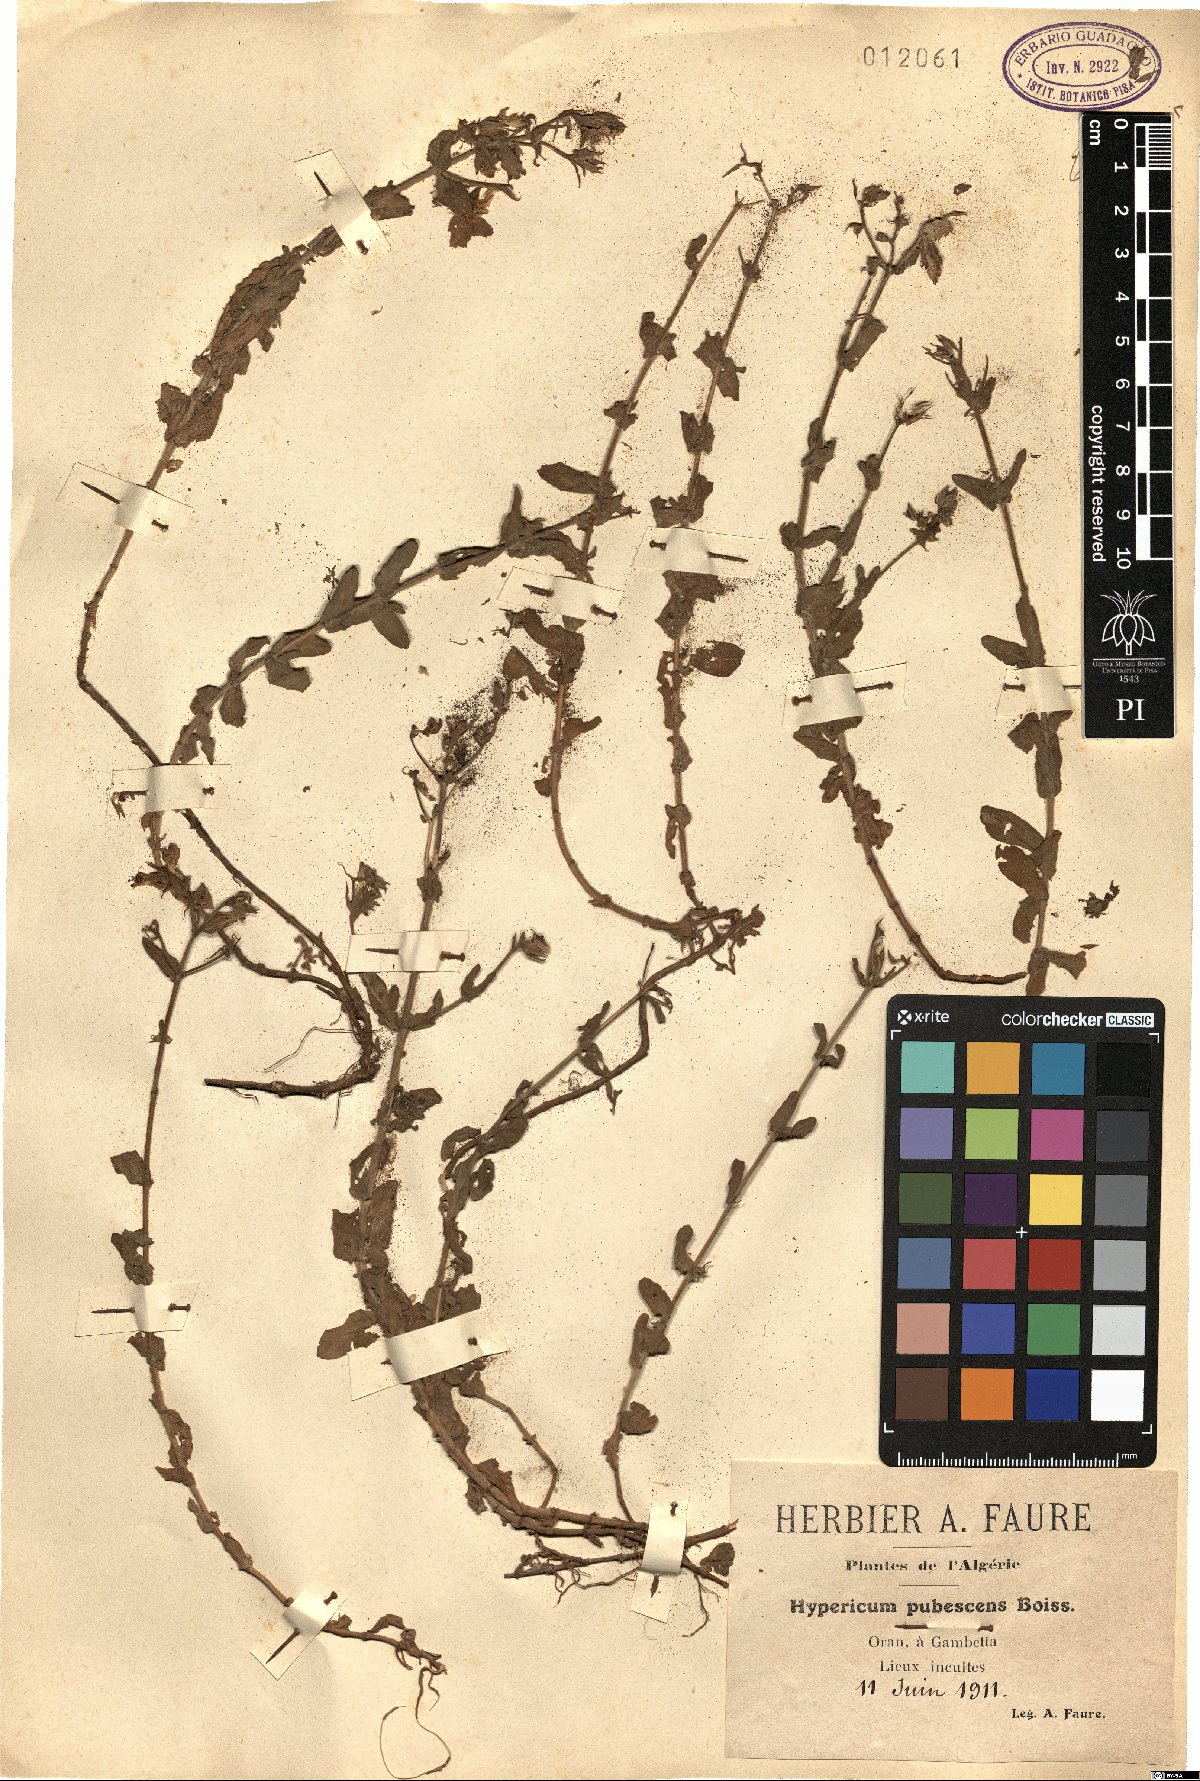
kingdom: Plantae
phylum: Tracheophyta
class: Magnoliopsida
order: Malpighiales
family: Hypericaceae
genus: Hypericum
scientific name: Hypericum pubescens
